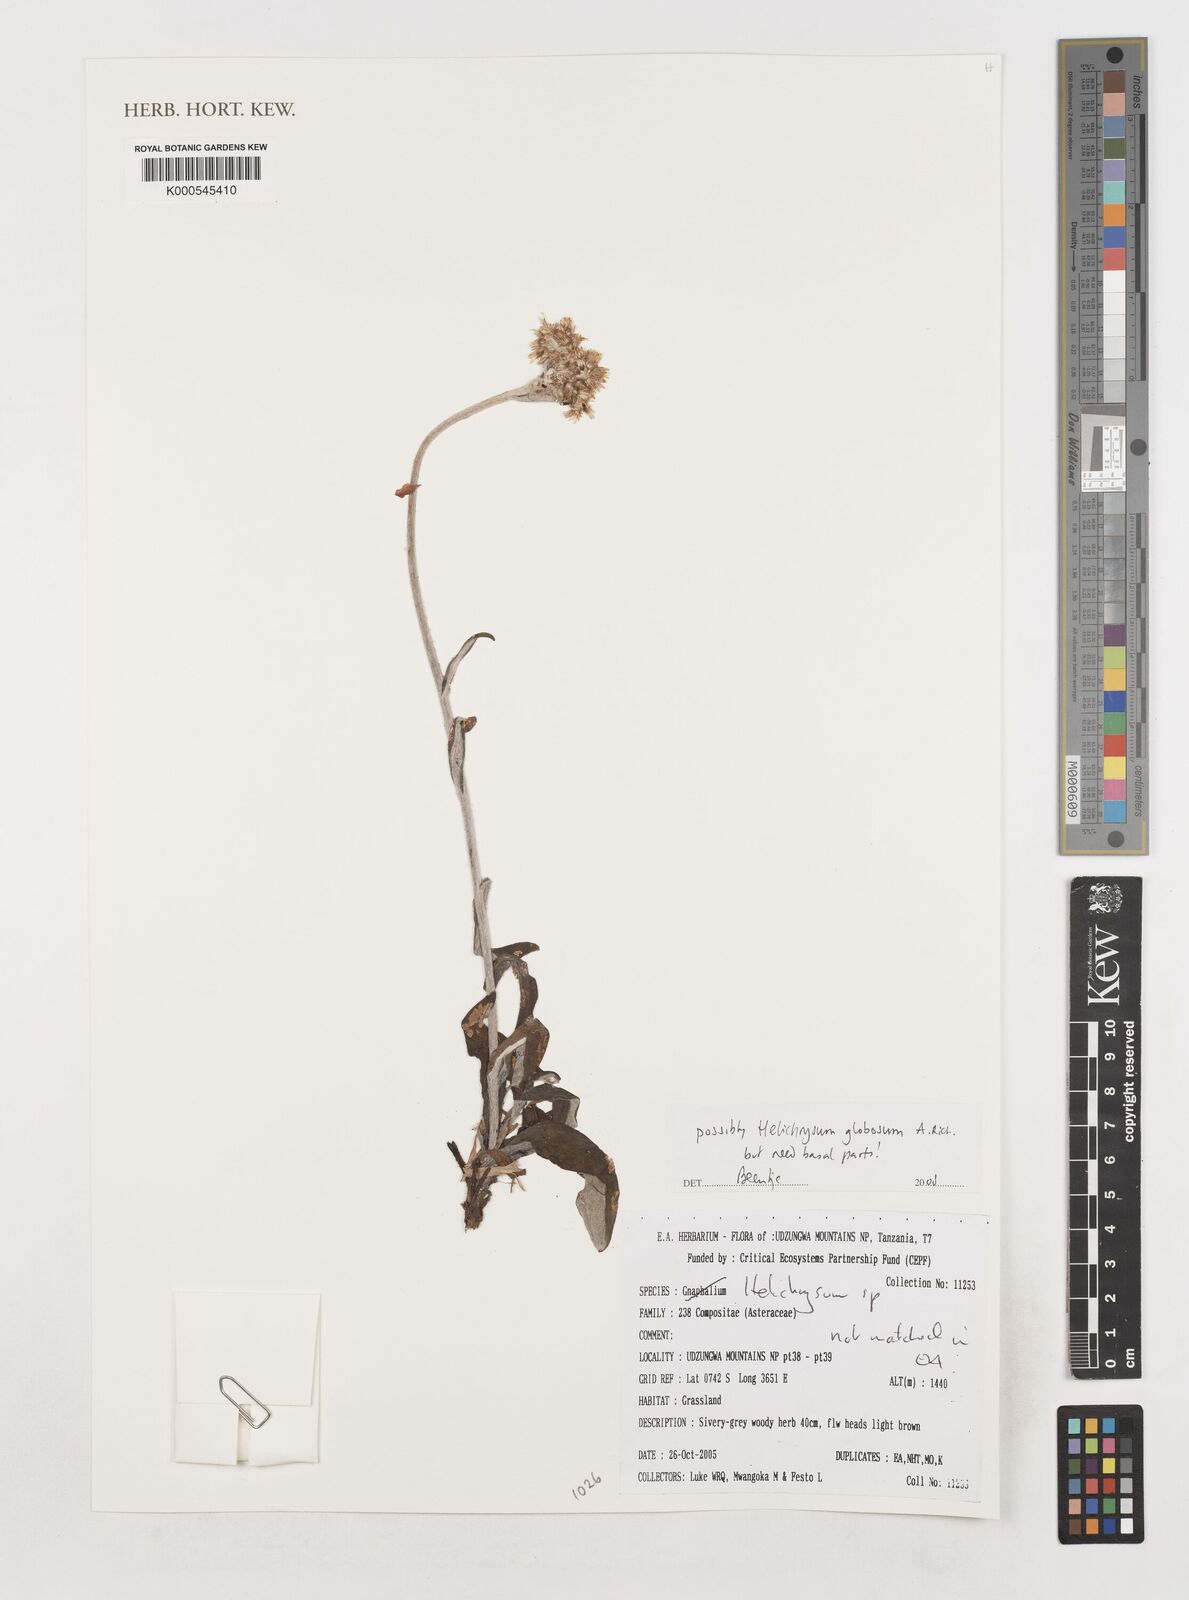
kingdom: Plantae
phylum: Tracheophyta
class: Magnoliopsida
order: Asterales
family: Asteraceae
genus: Helichrysum
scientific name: Helichrysum globosum
